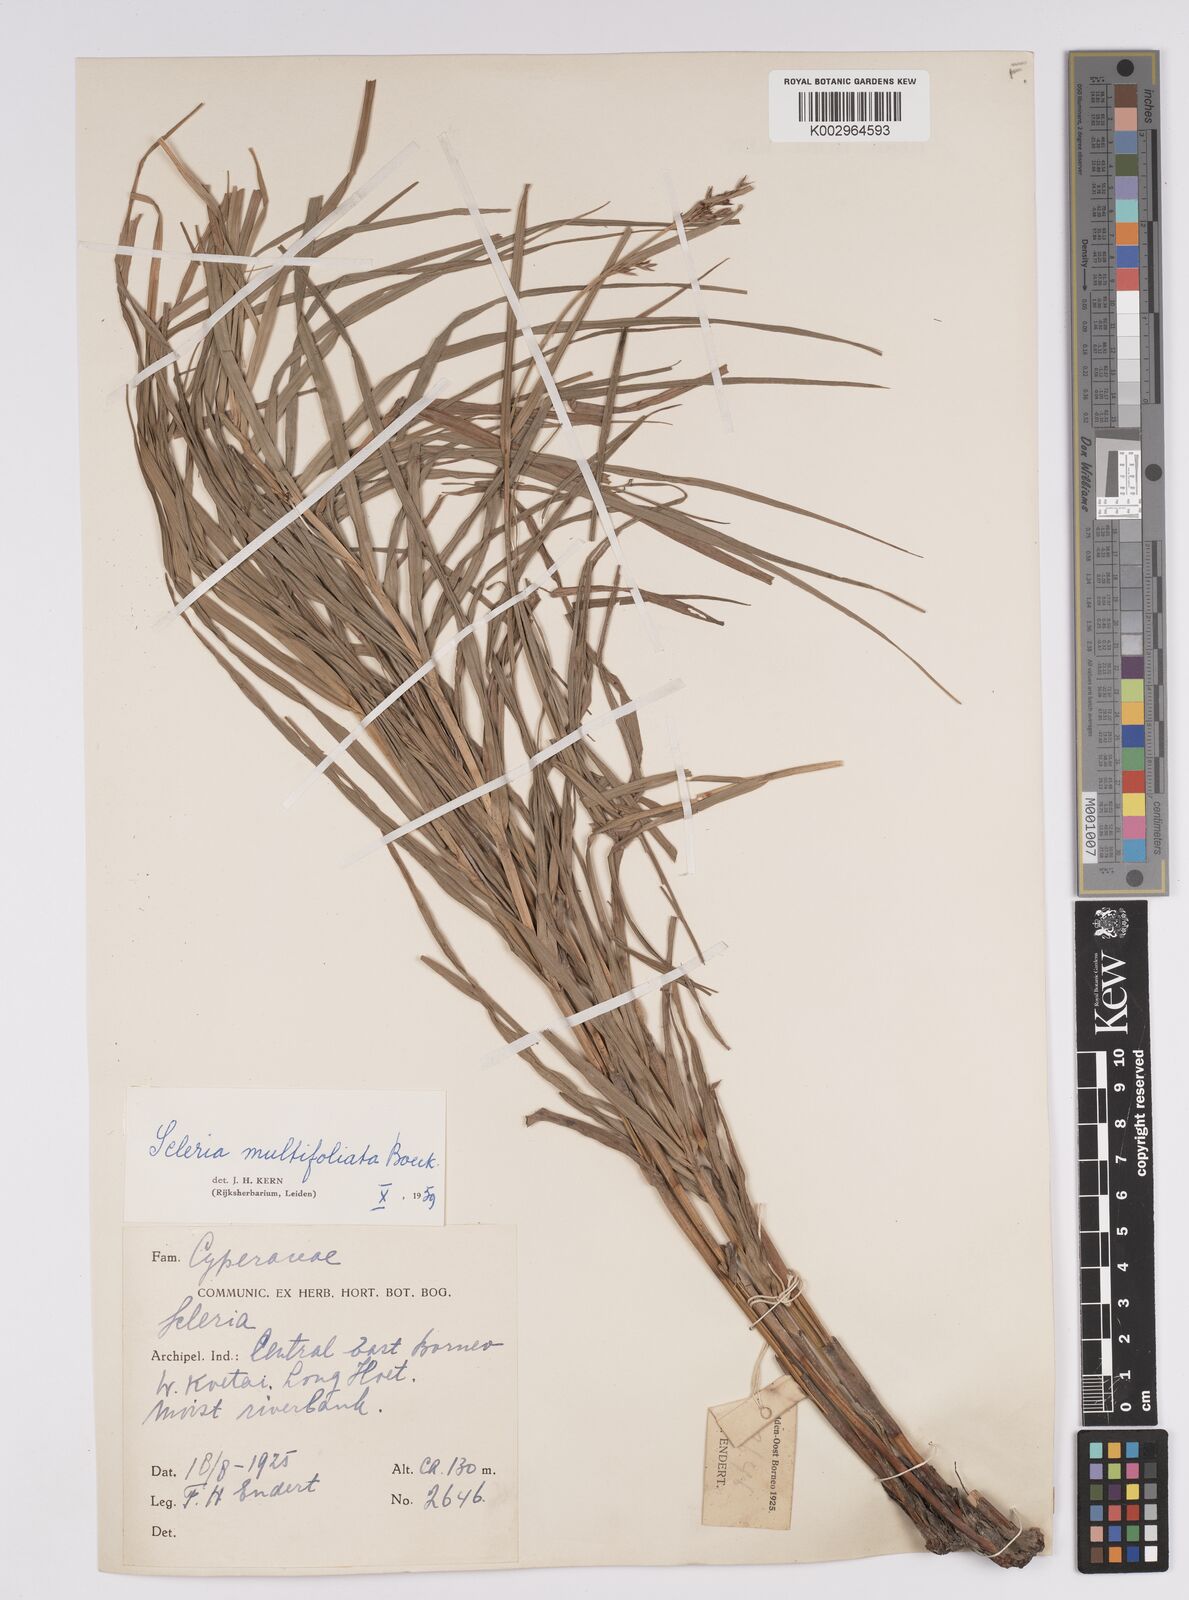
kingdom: Plantae
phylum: Tracheophyta
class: Liliopsida
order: Poales
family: Cyperaceae
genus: Scleria
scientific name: Scleria purpurascens
